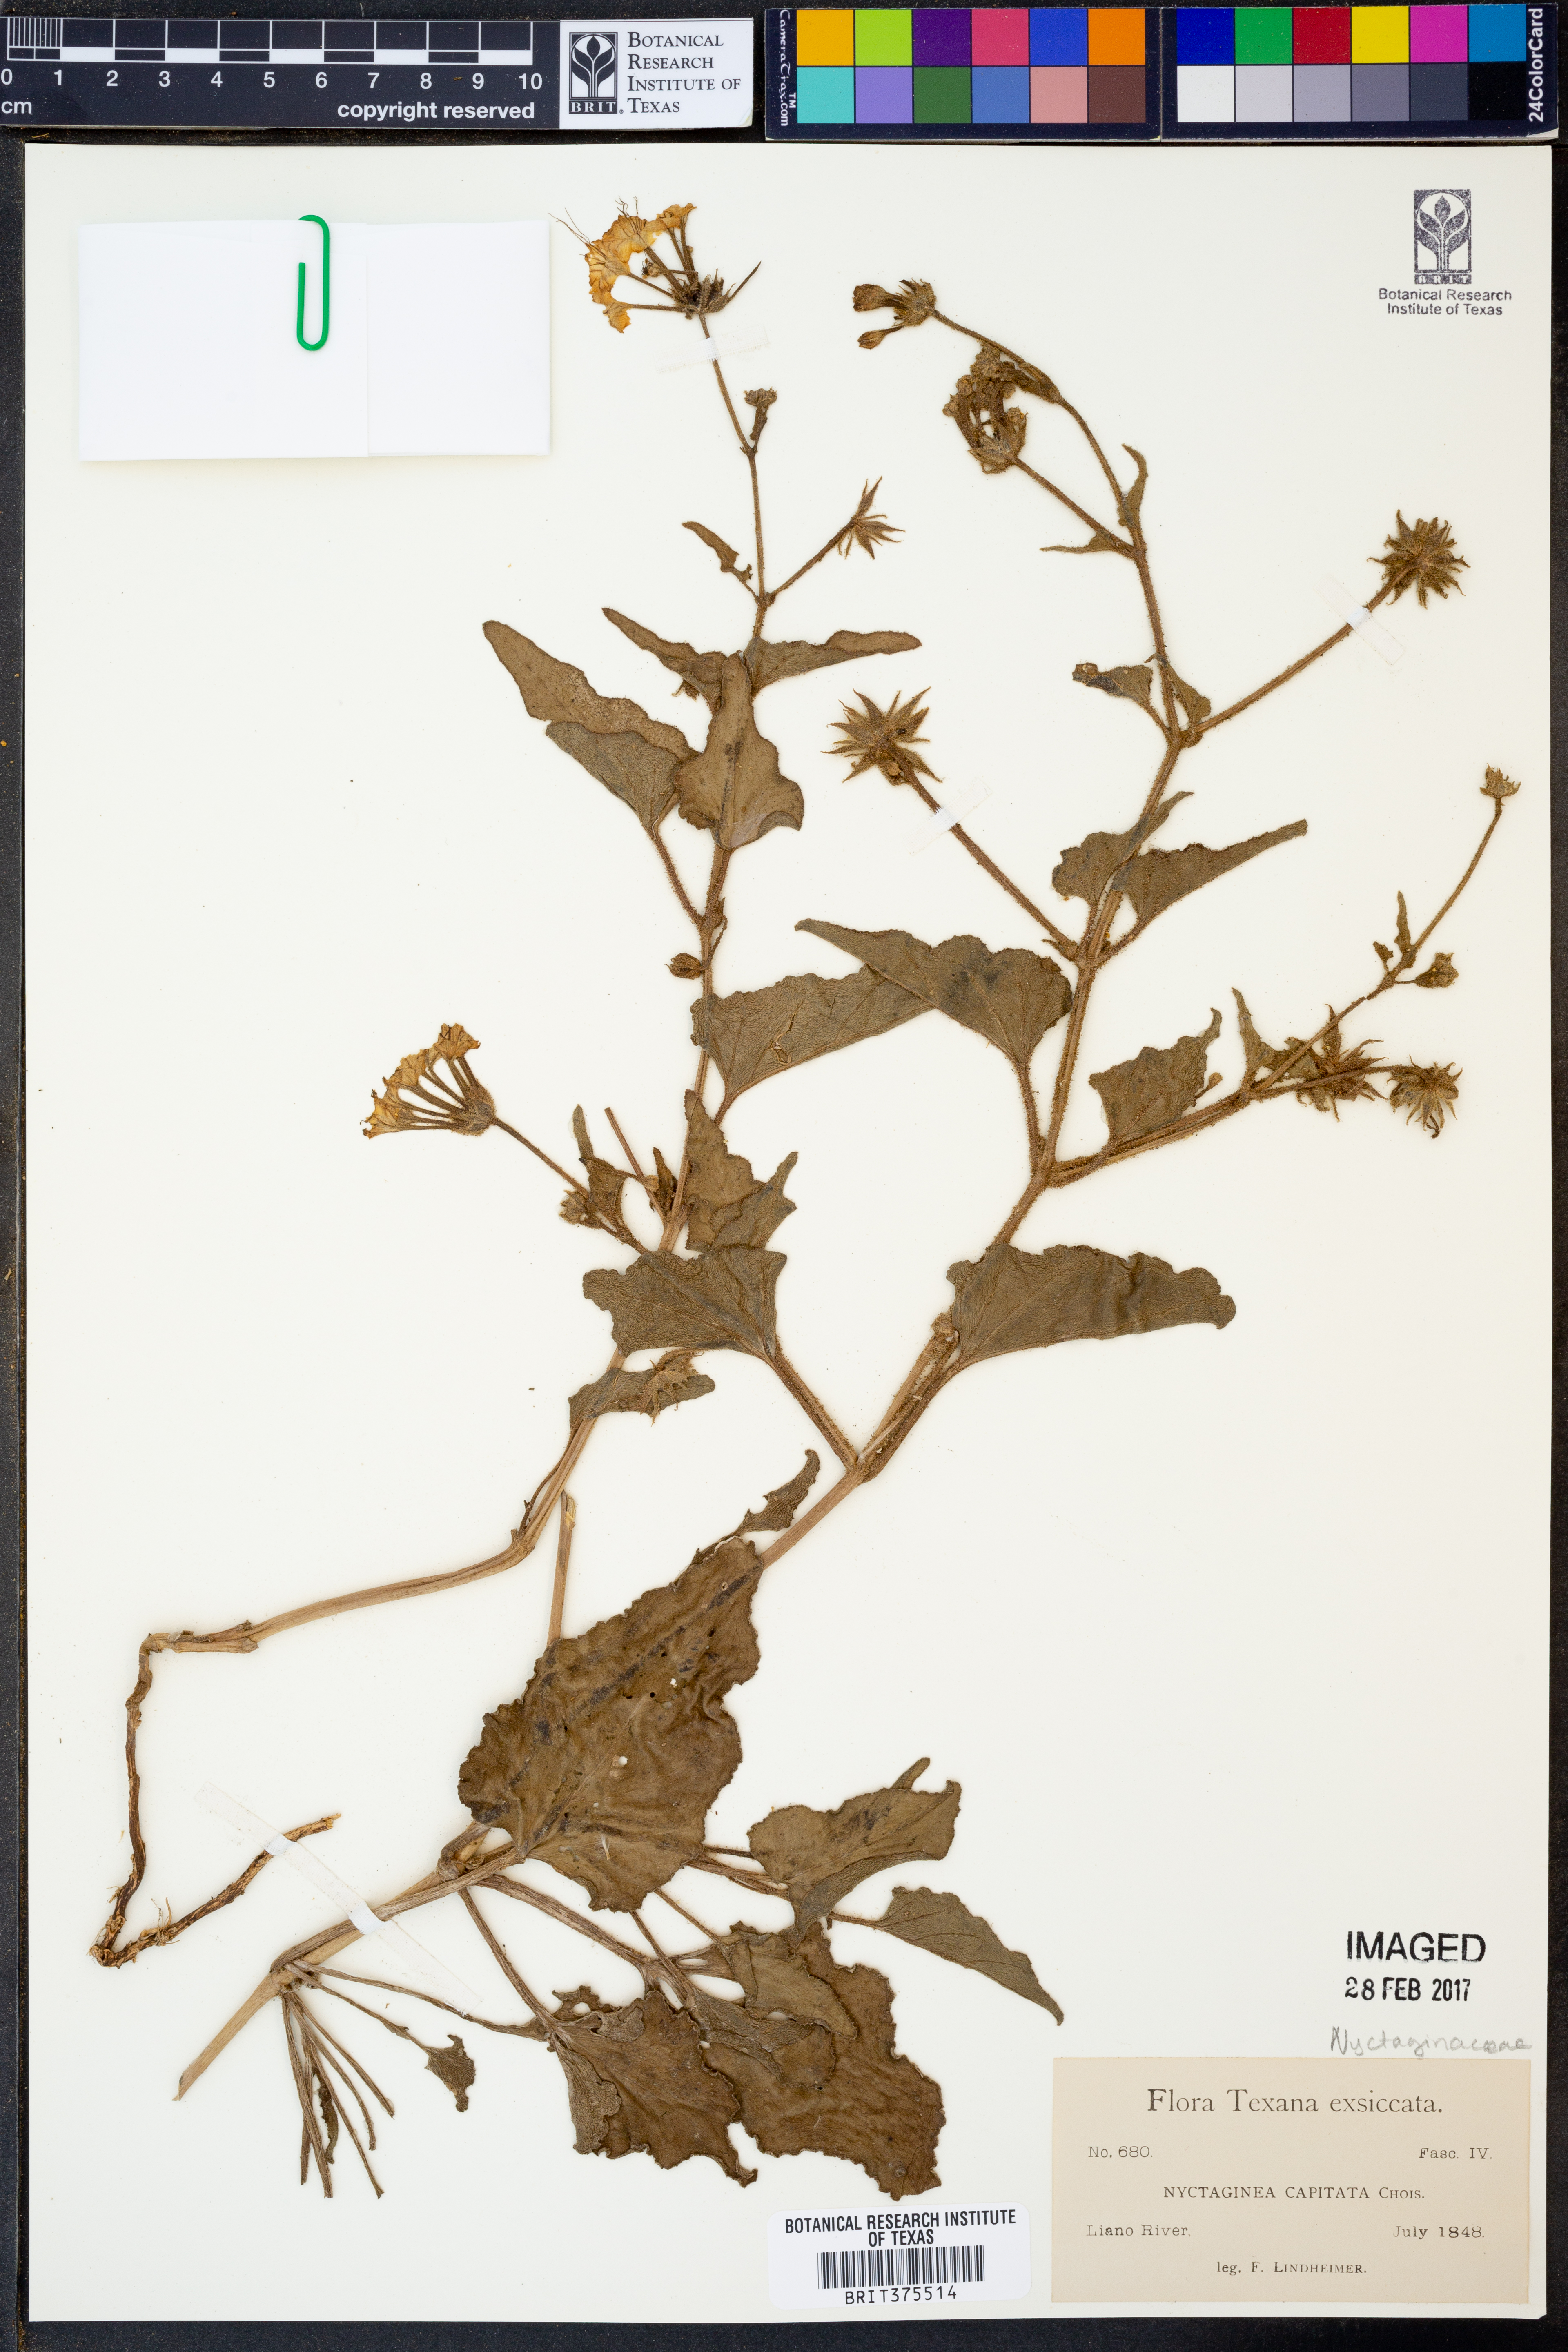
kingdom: Plantae
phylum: Tracheophyta
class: Magnoliopsida
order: Caryophyllales
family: Nyctaginaceae
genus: Nyctaginia
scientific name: Nyctaginia capitata
